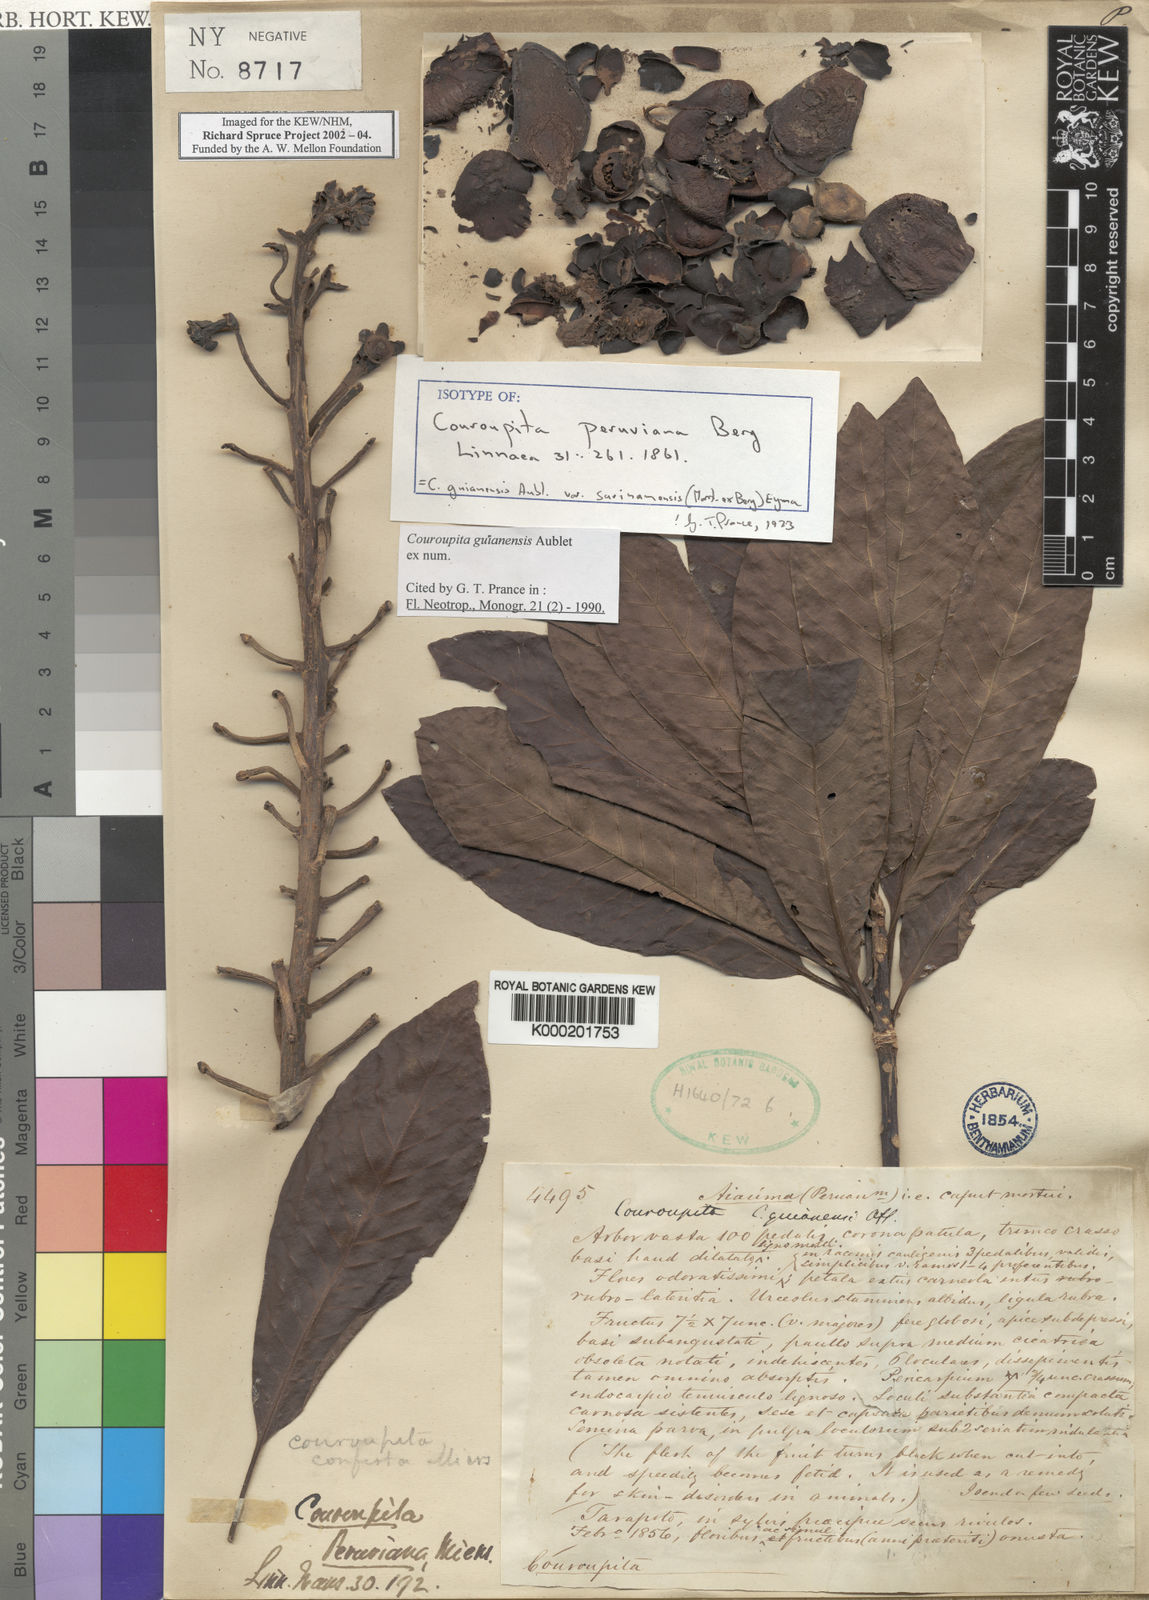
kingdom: Plantae
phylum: Tracheophyta
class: Magnoliopsida
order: Ericales
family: Lecythidaceae
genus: Couroupita
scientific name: Couroupita guianensis
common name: Cannonball tree
